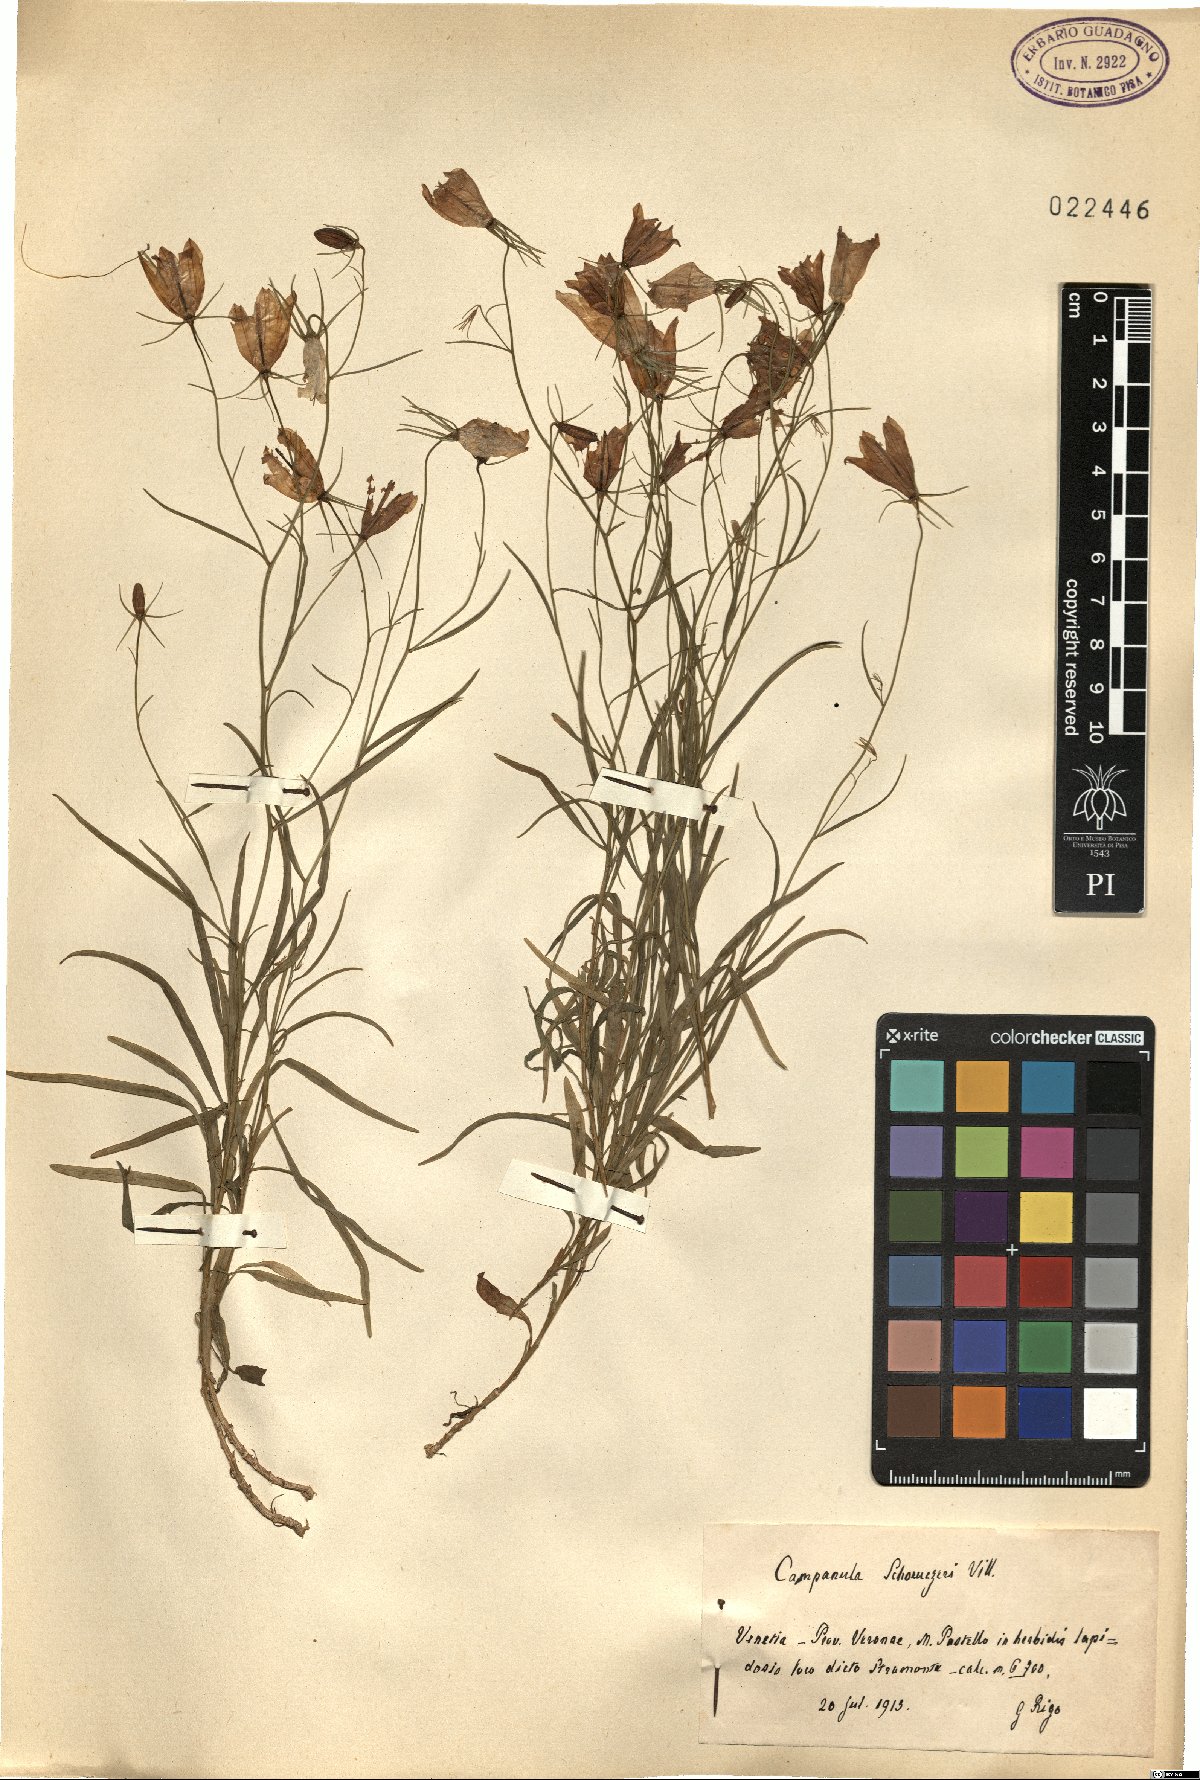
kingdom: Plantae
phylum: Tracheophyta
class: Magnoliopsida
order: Asterales
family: Campanulaceae
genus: Campanula
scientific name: Campanula scheuchzeri
